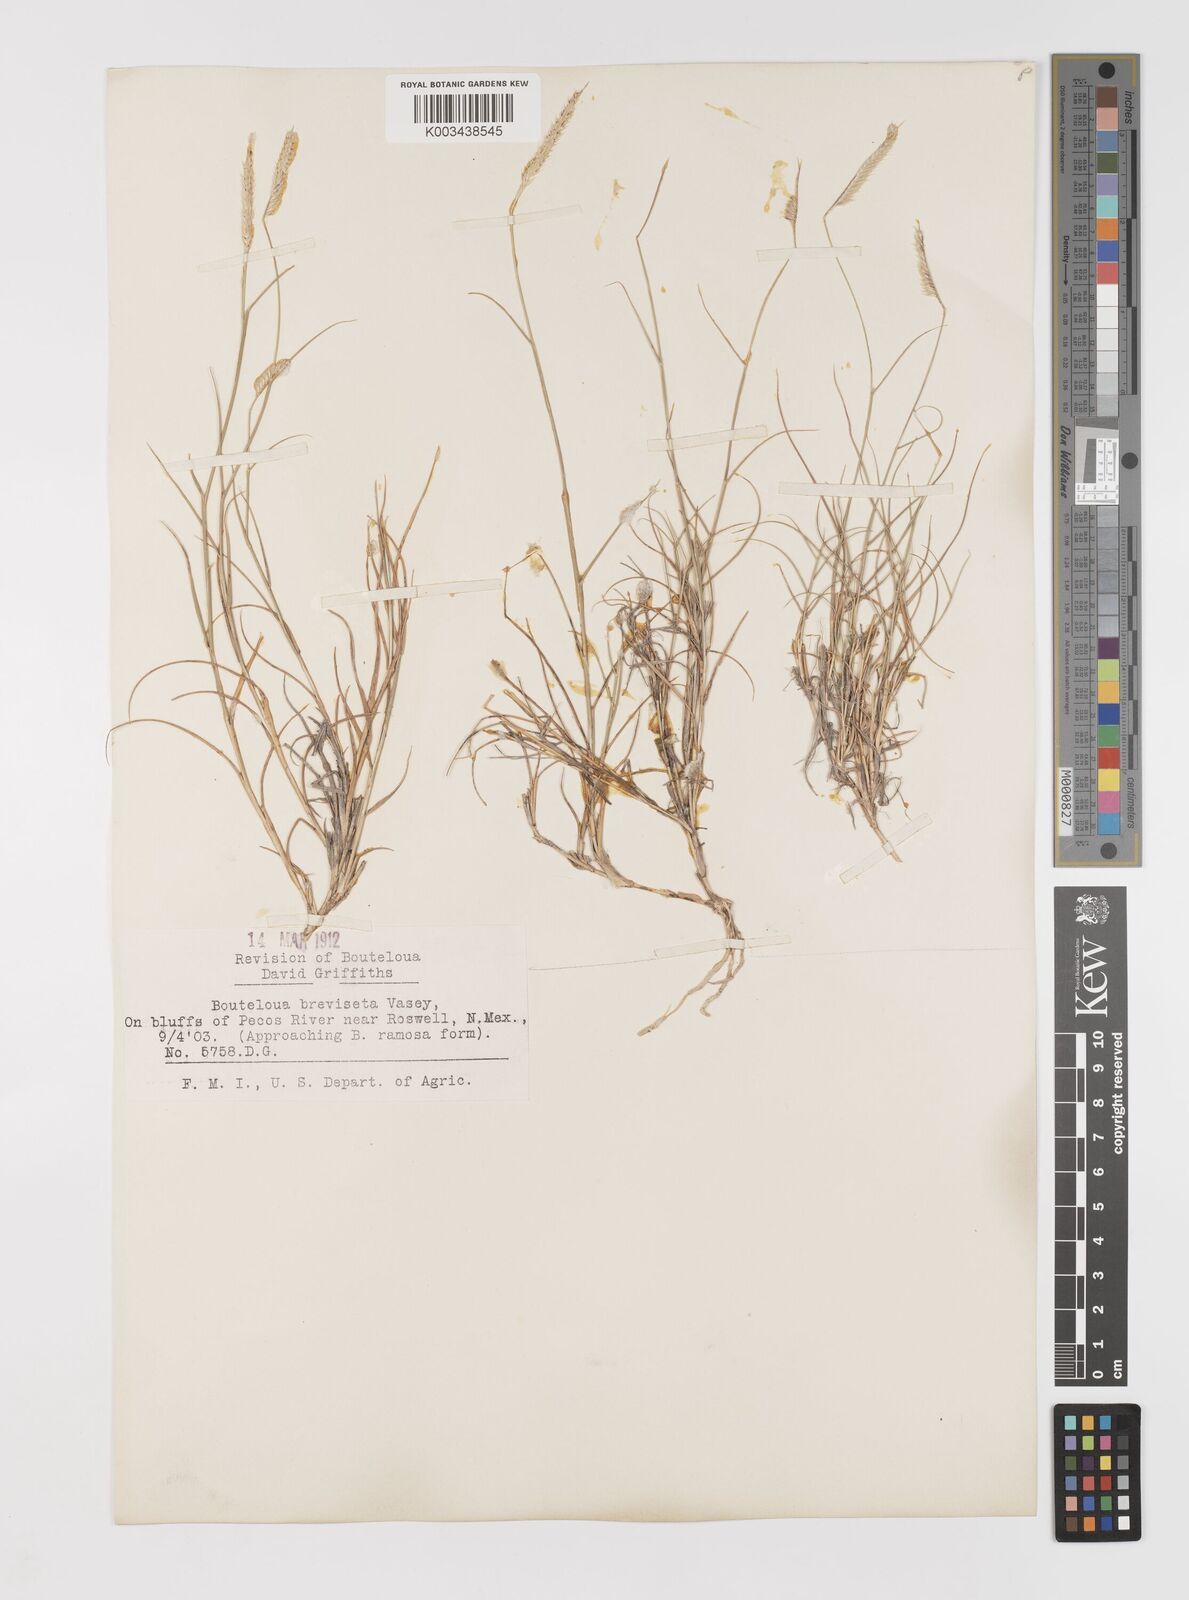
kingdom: Plantae
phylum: Tracheophyta
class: Liliopsida
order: Poales
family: Poaceae
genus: Bouteloua
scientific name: Bouteloua breviseta
